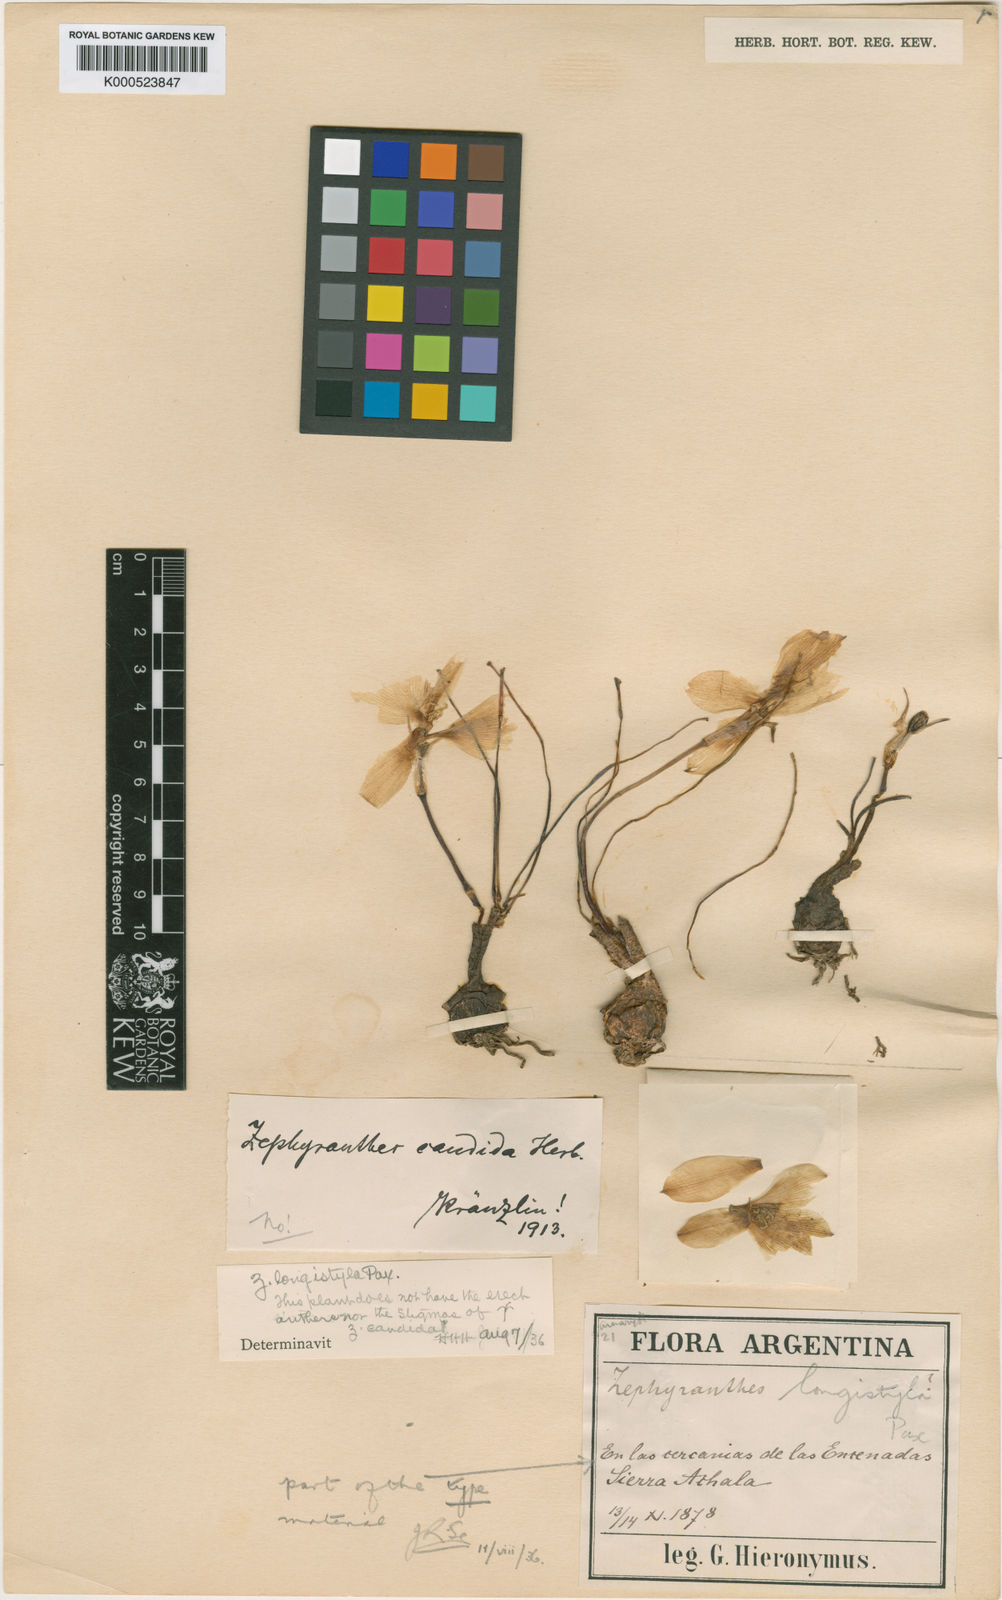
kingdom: Plantae
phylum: Tracheophyta
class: Liliopsida
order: Asparagales
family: Amaryllidaceae
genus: Zephyranthes
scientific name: Zephyranthes longistyla
